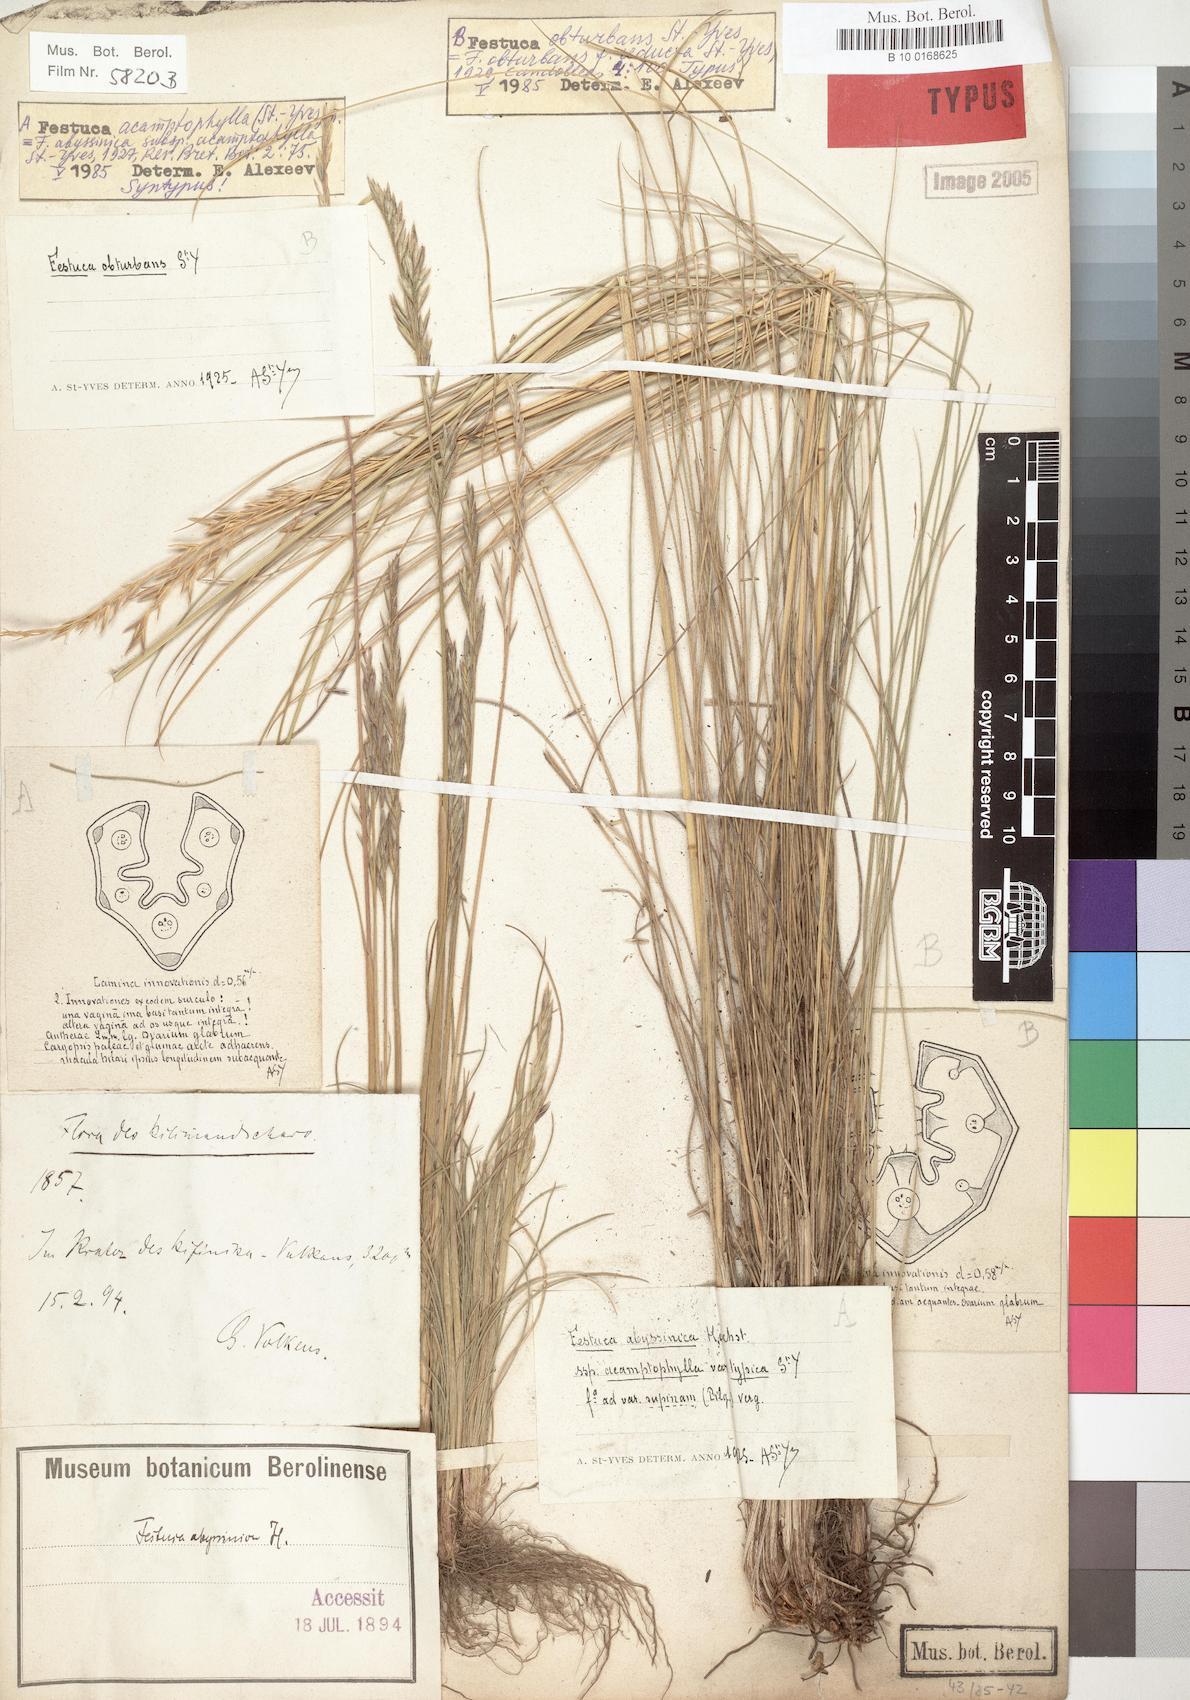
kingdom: Plantae
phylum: Tracheophyta
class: Liliopsida
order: Poales
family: Poaceae
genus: Festuca
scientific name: Festuca obturbans
